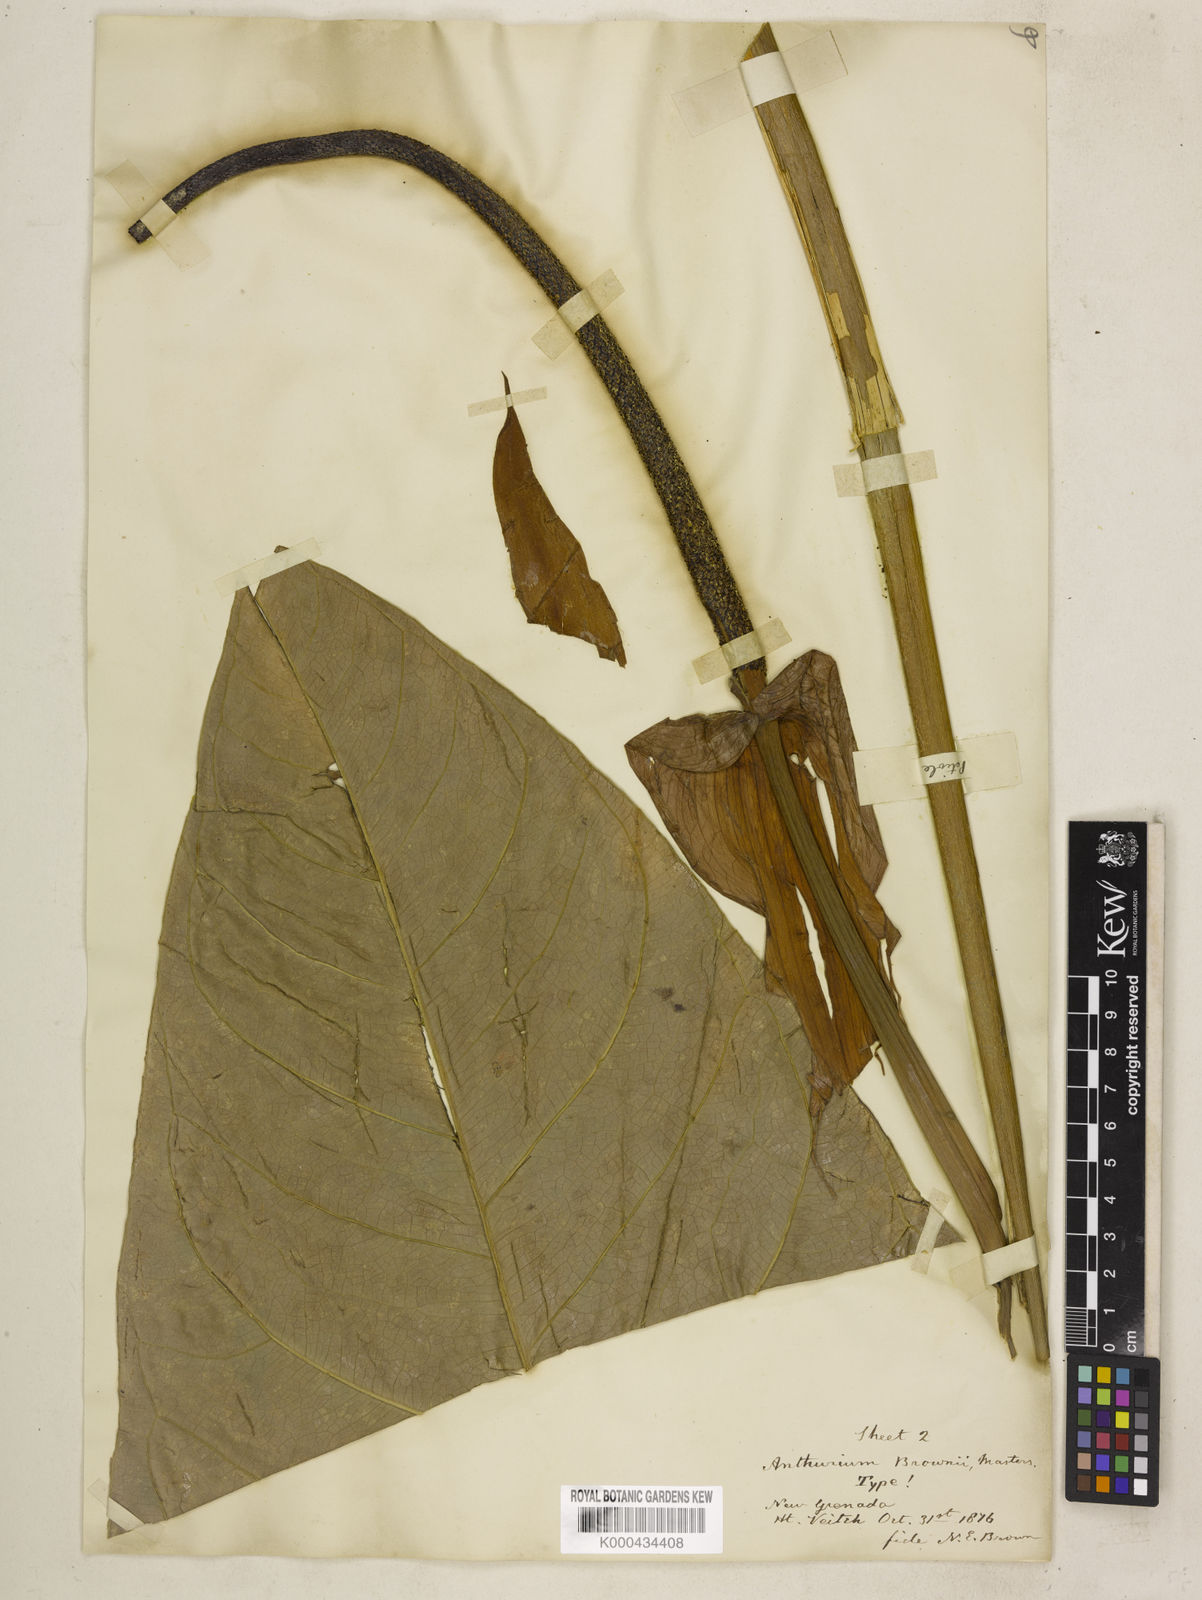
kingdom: Plantae
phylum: Tracheophyta
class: Liliopsida
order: Alismatales
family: Araceae
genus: Anthurium
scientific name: Anthurium brownii
